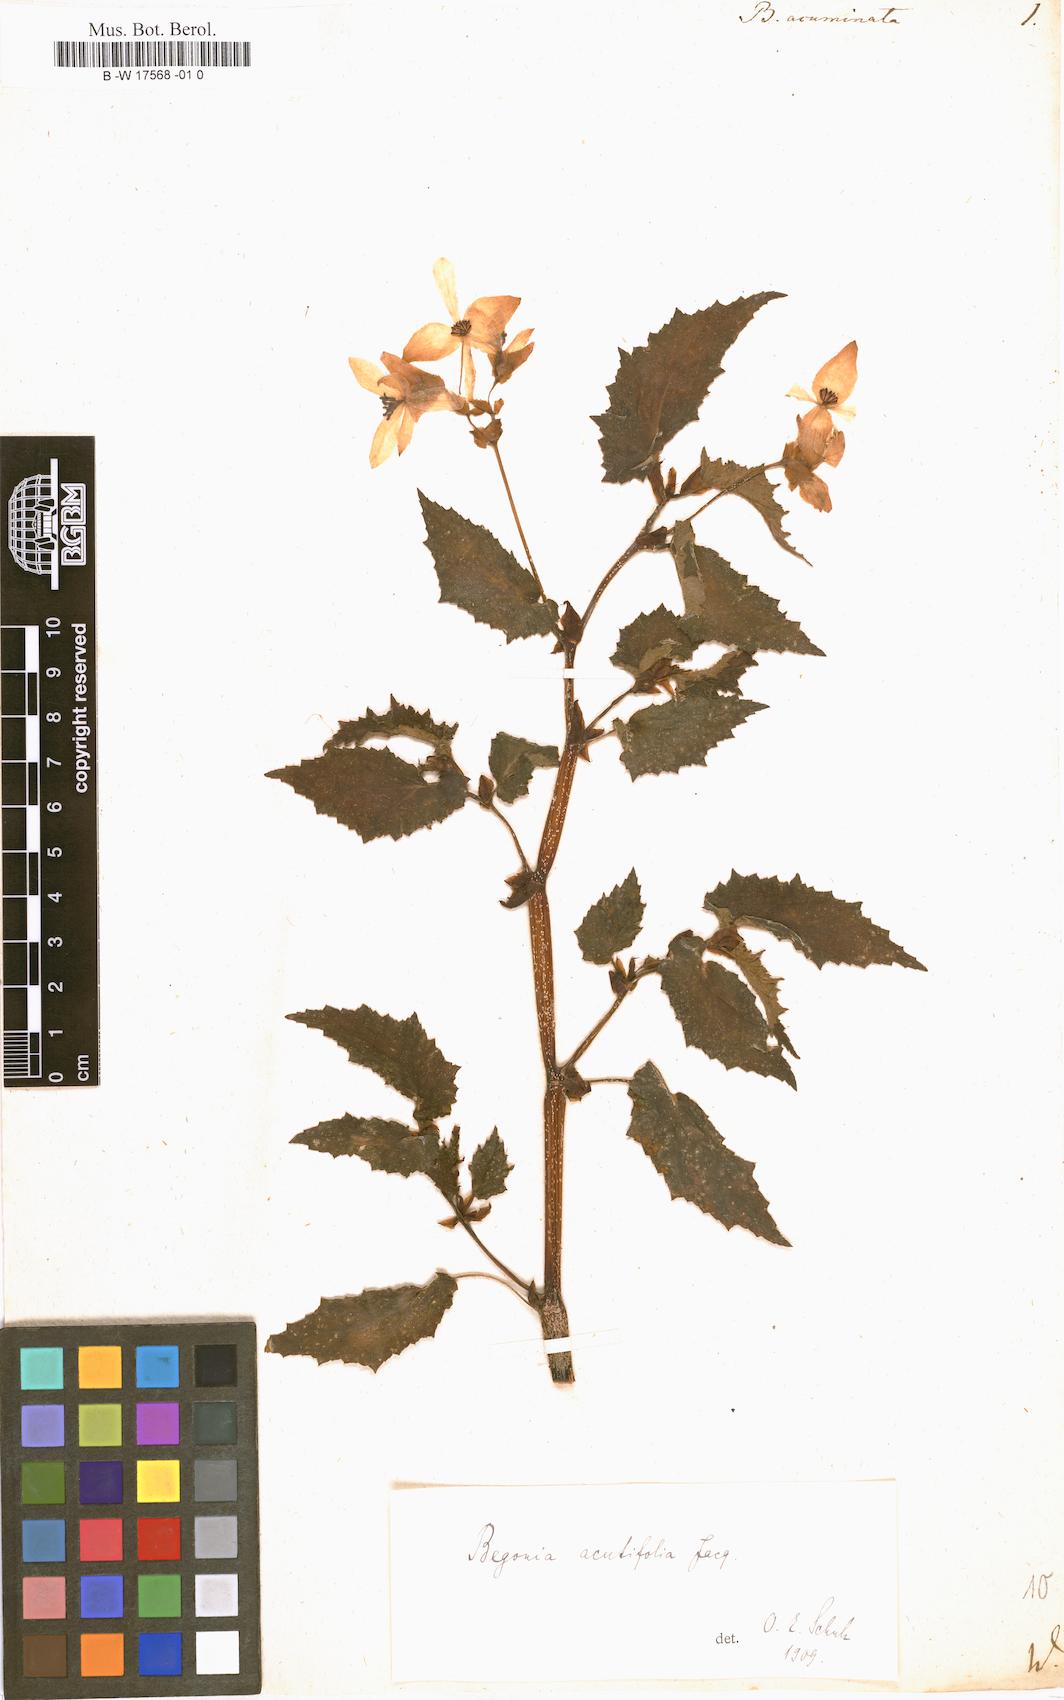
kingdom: Plantae
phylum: Tracheophyta
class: Magnoliopsida
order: Cucurbitales
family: Begoniaceae
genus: Begonia
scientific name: Begonia acutifolia
